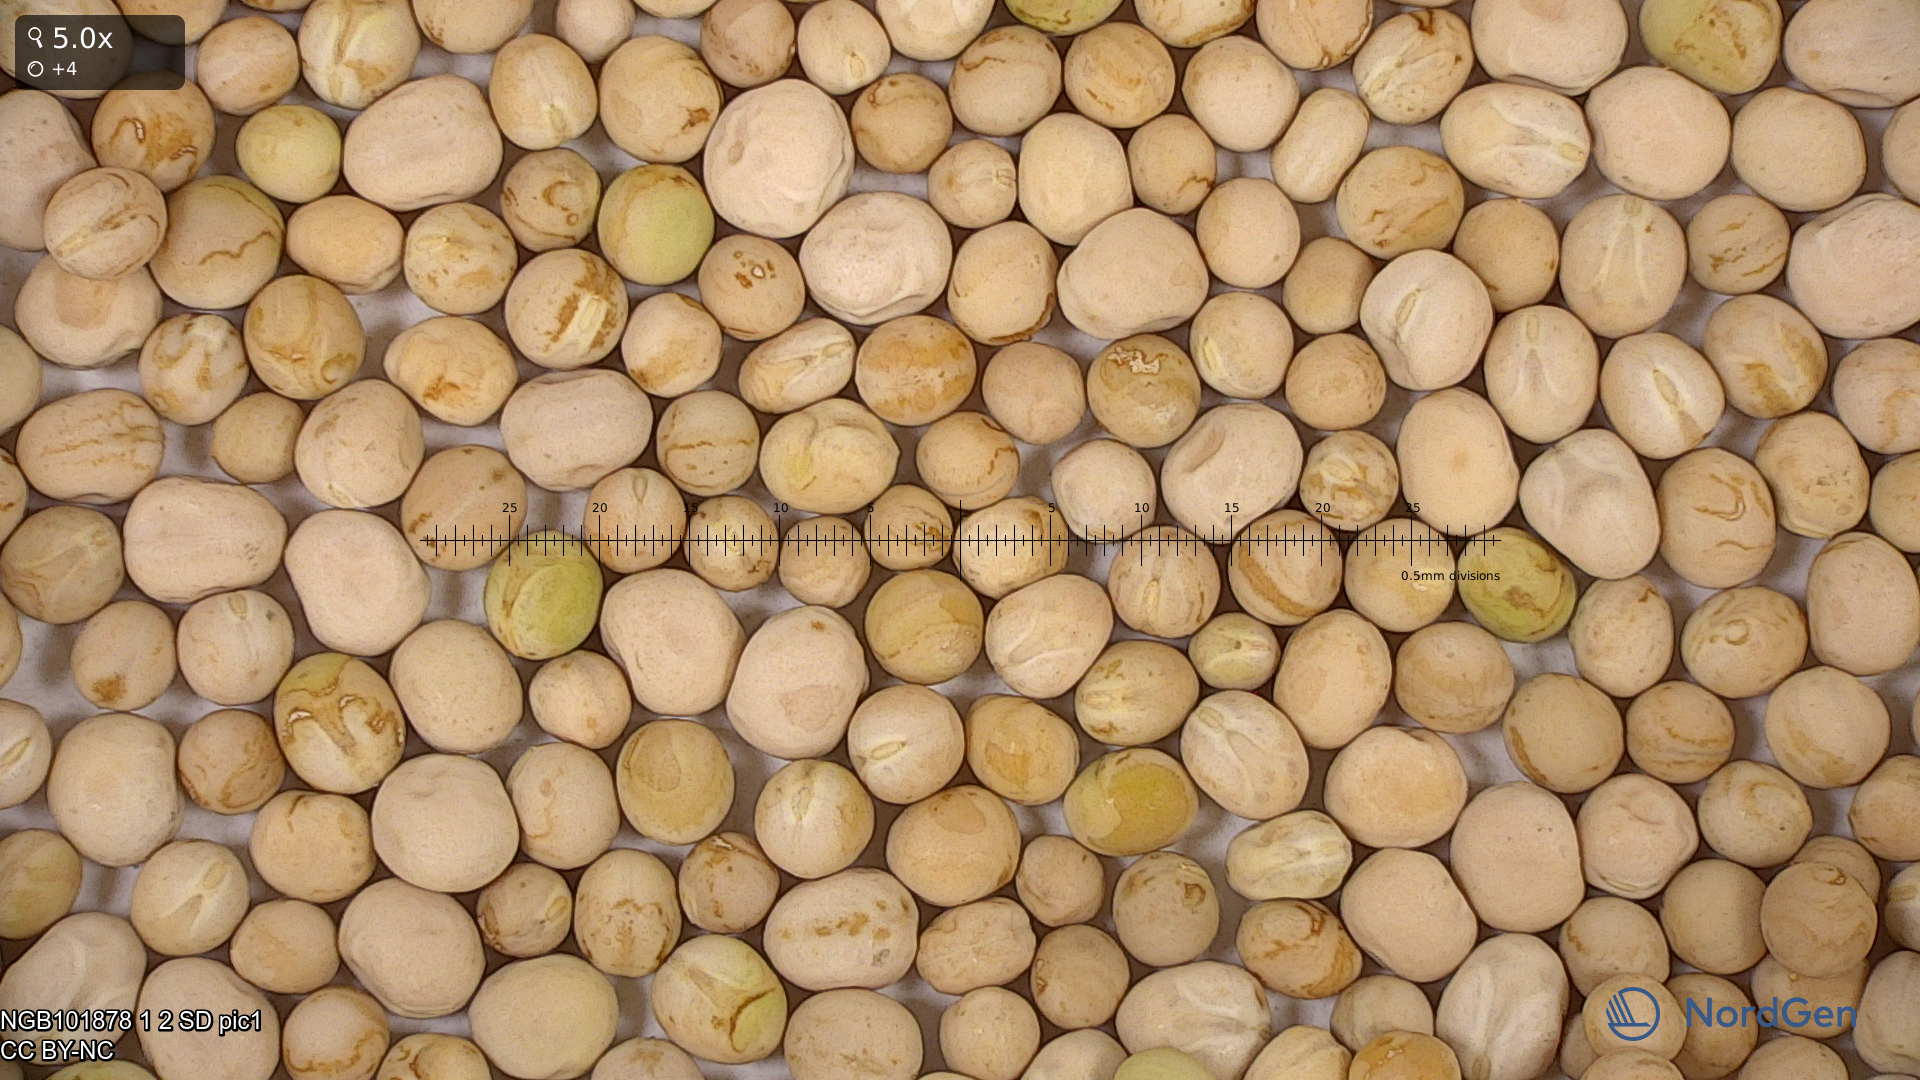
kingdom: Plantae
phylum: Tracheophyta
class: Magnoliopsida
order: Fabales
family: Fabaceae
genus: Lathyrus
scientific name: Lathyrus oleraceus
